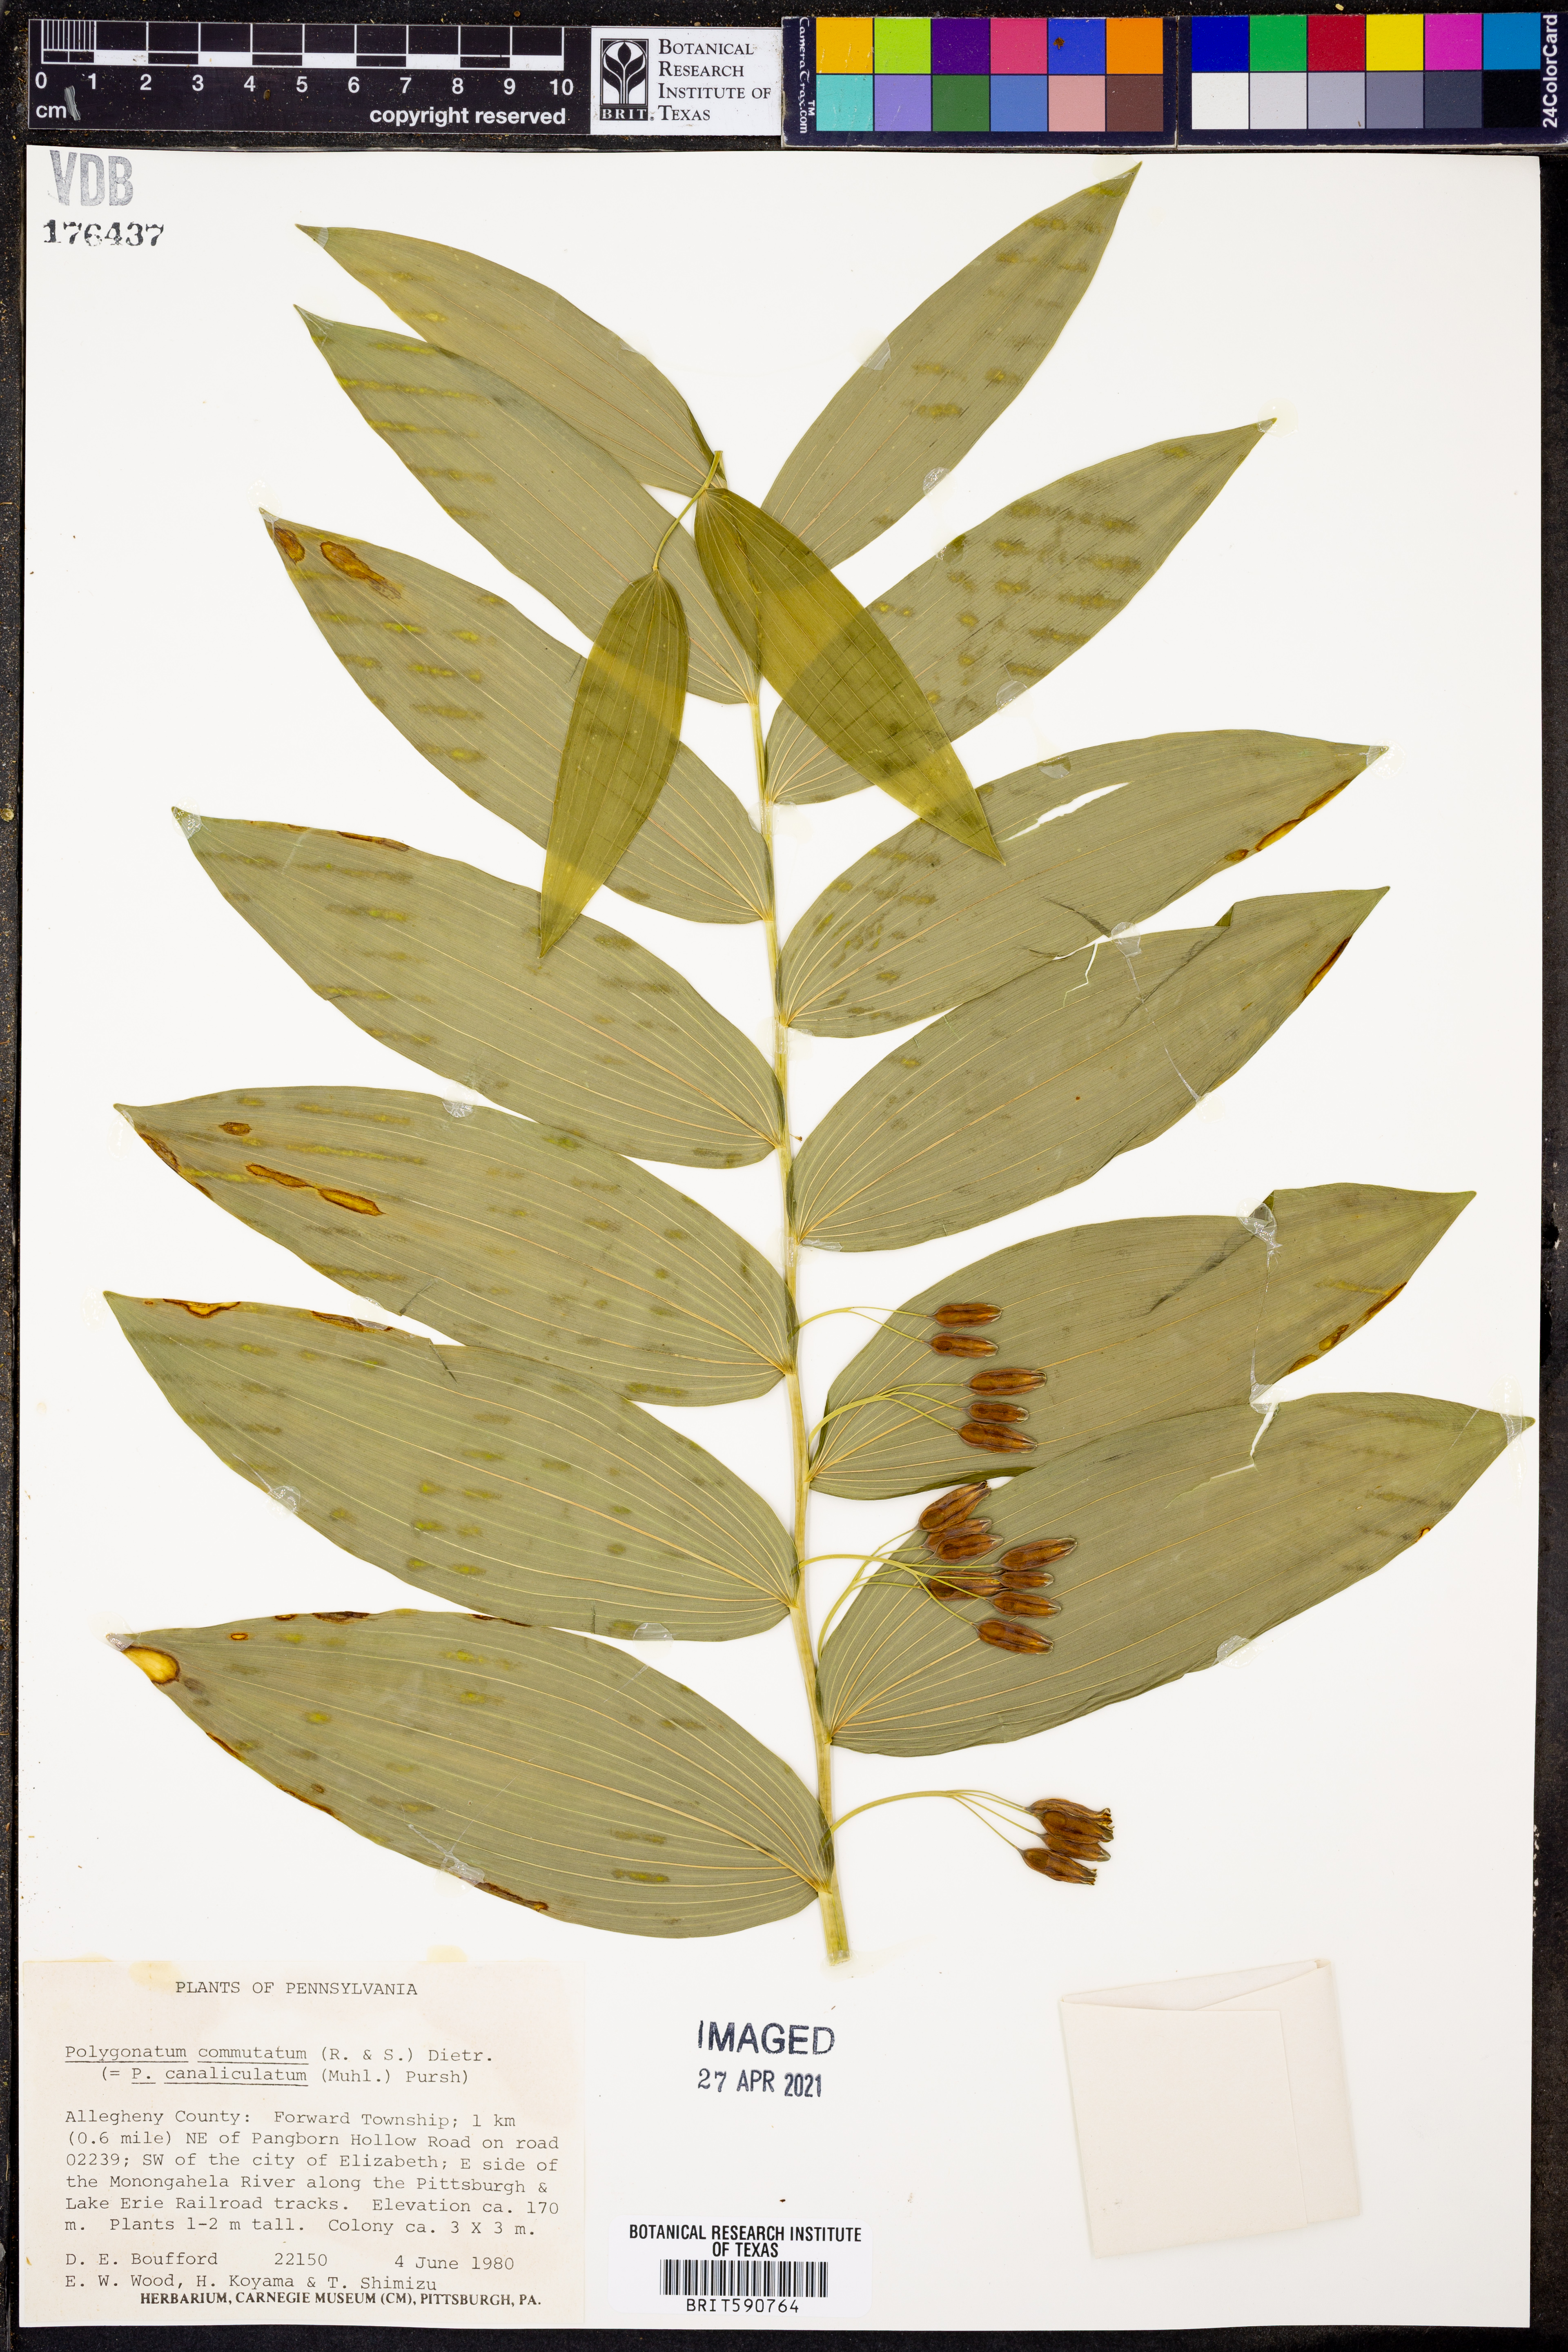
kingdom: Plantae
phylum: Tracheophyta
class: Liliopsida
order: Asparagales
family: Asparagaceae
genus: Polygonatum
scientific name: Polygonatum biflorum
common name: American solomon's-seal
